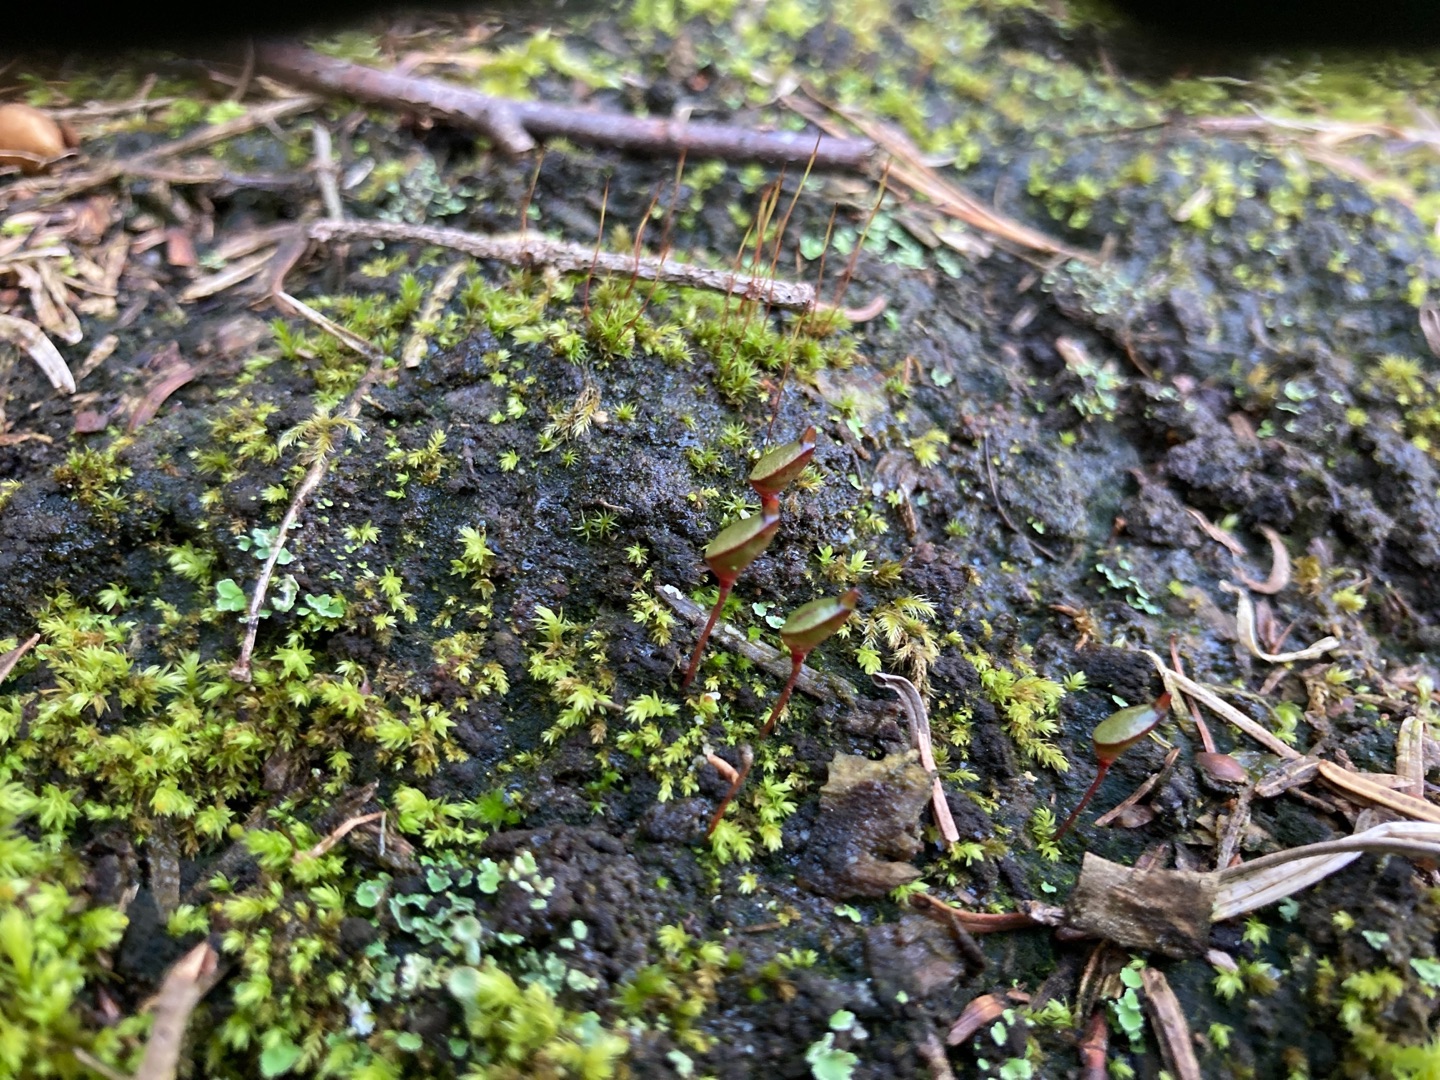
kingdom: Plantae
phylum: Bryophyta
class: Bryopsida
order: Buxbaumiales
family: Buxbaumiaceae
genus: Buxbaumia
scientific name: Buxbaumia aphylla
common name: Rundkapslet buxbaumia
